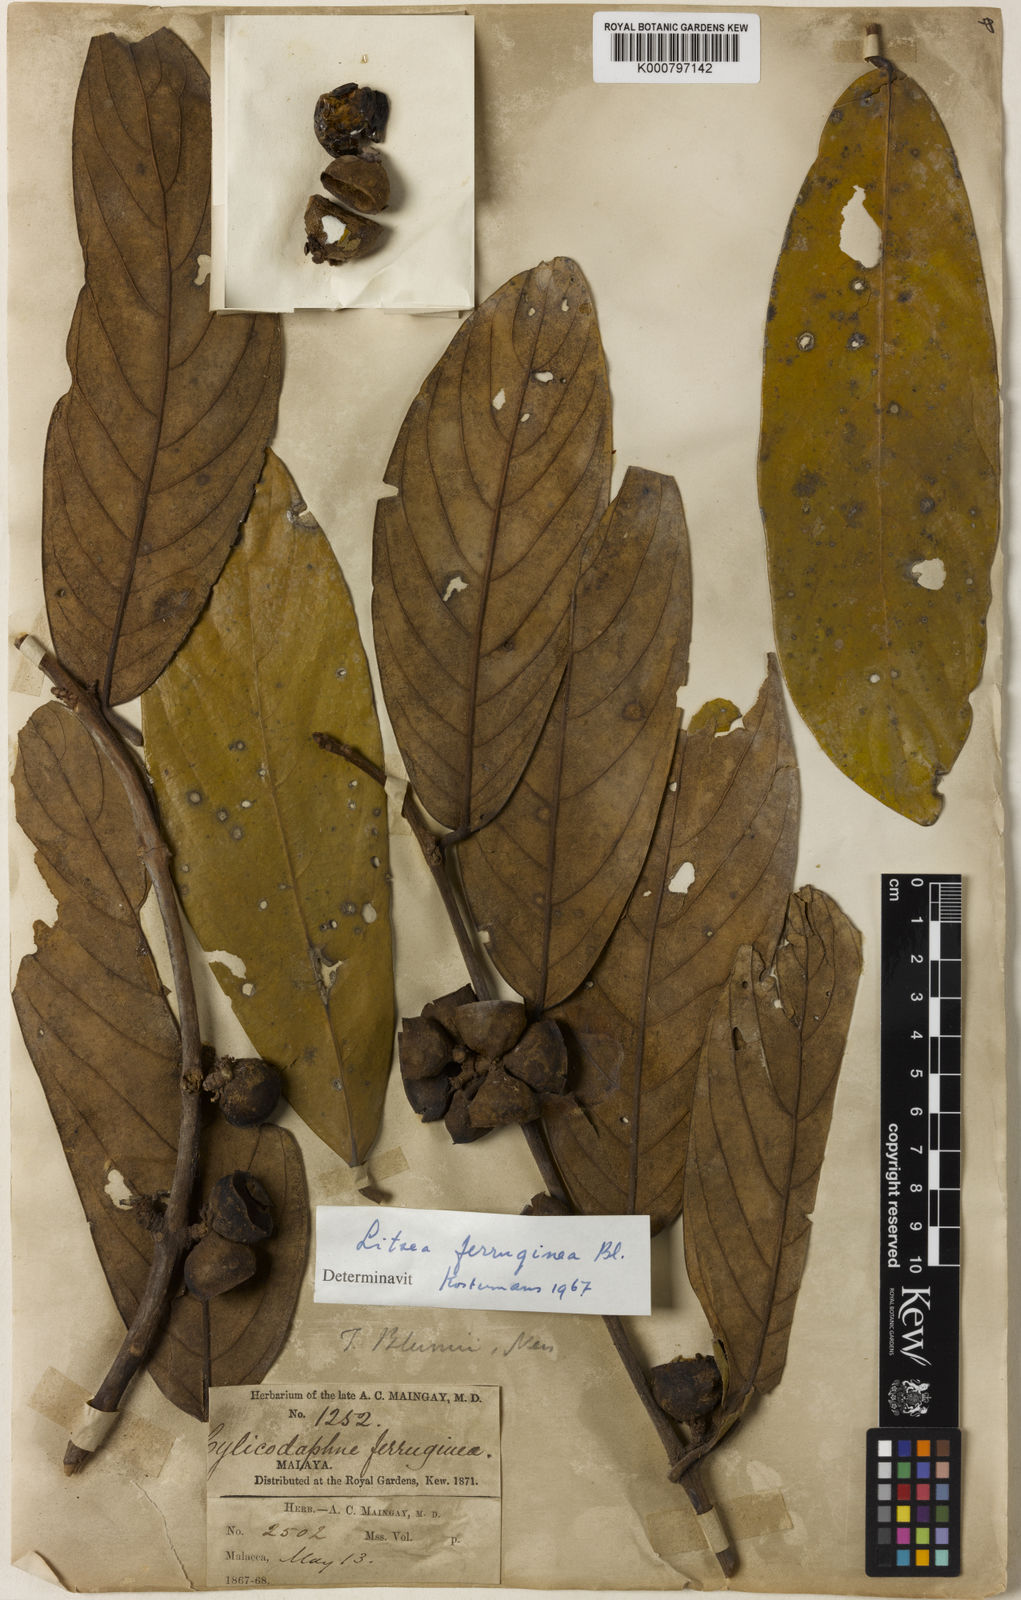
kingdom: Plantae
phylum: Tracheophyta
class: Magnoliopsida
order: Laurales
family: Lauraceae
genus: Litsea
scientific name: Litsea ferruginea
